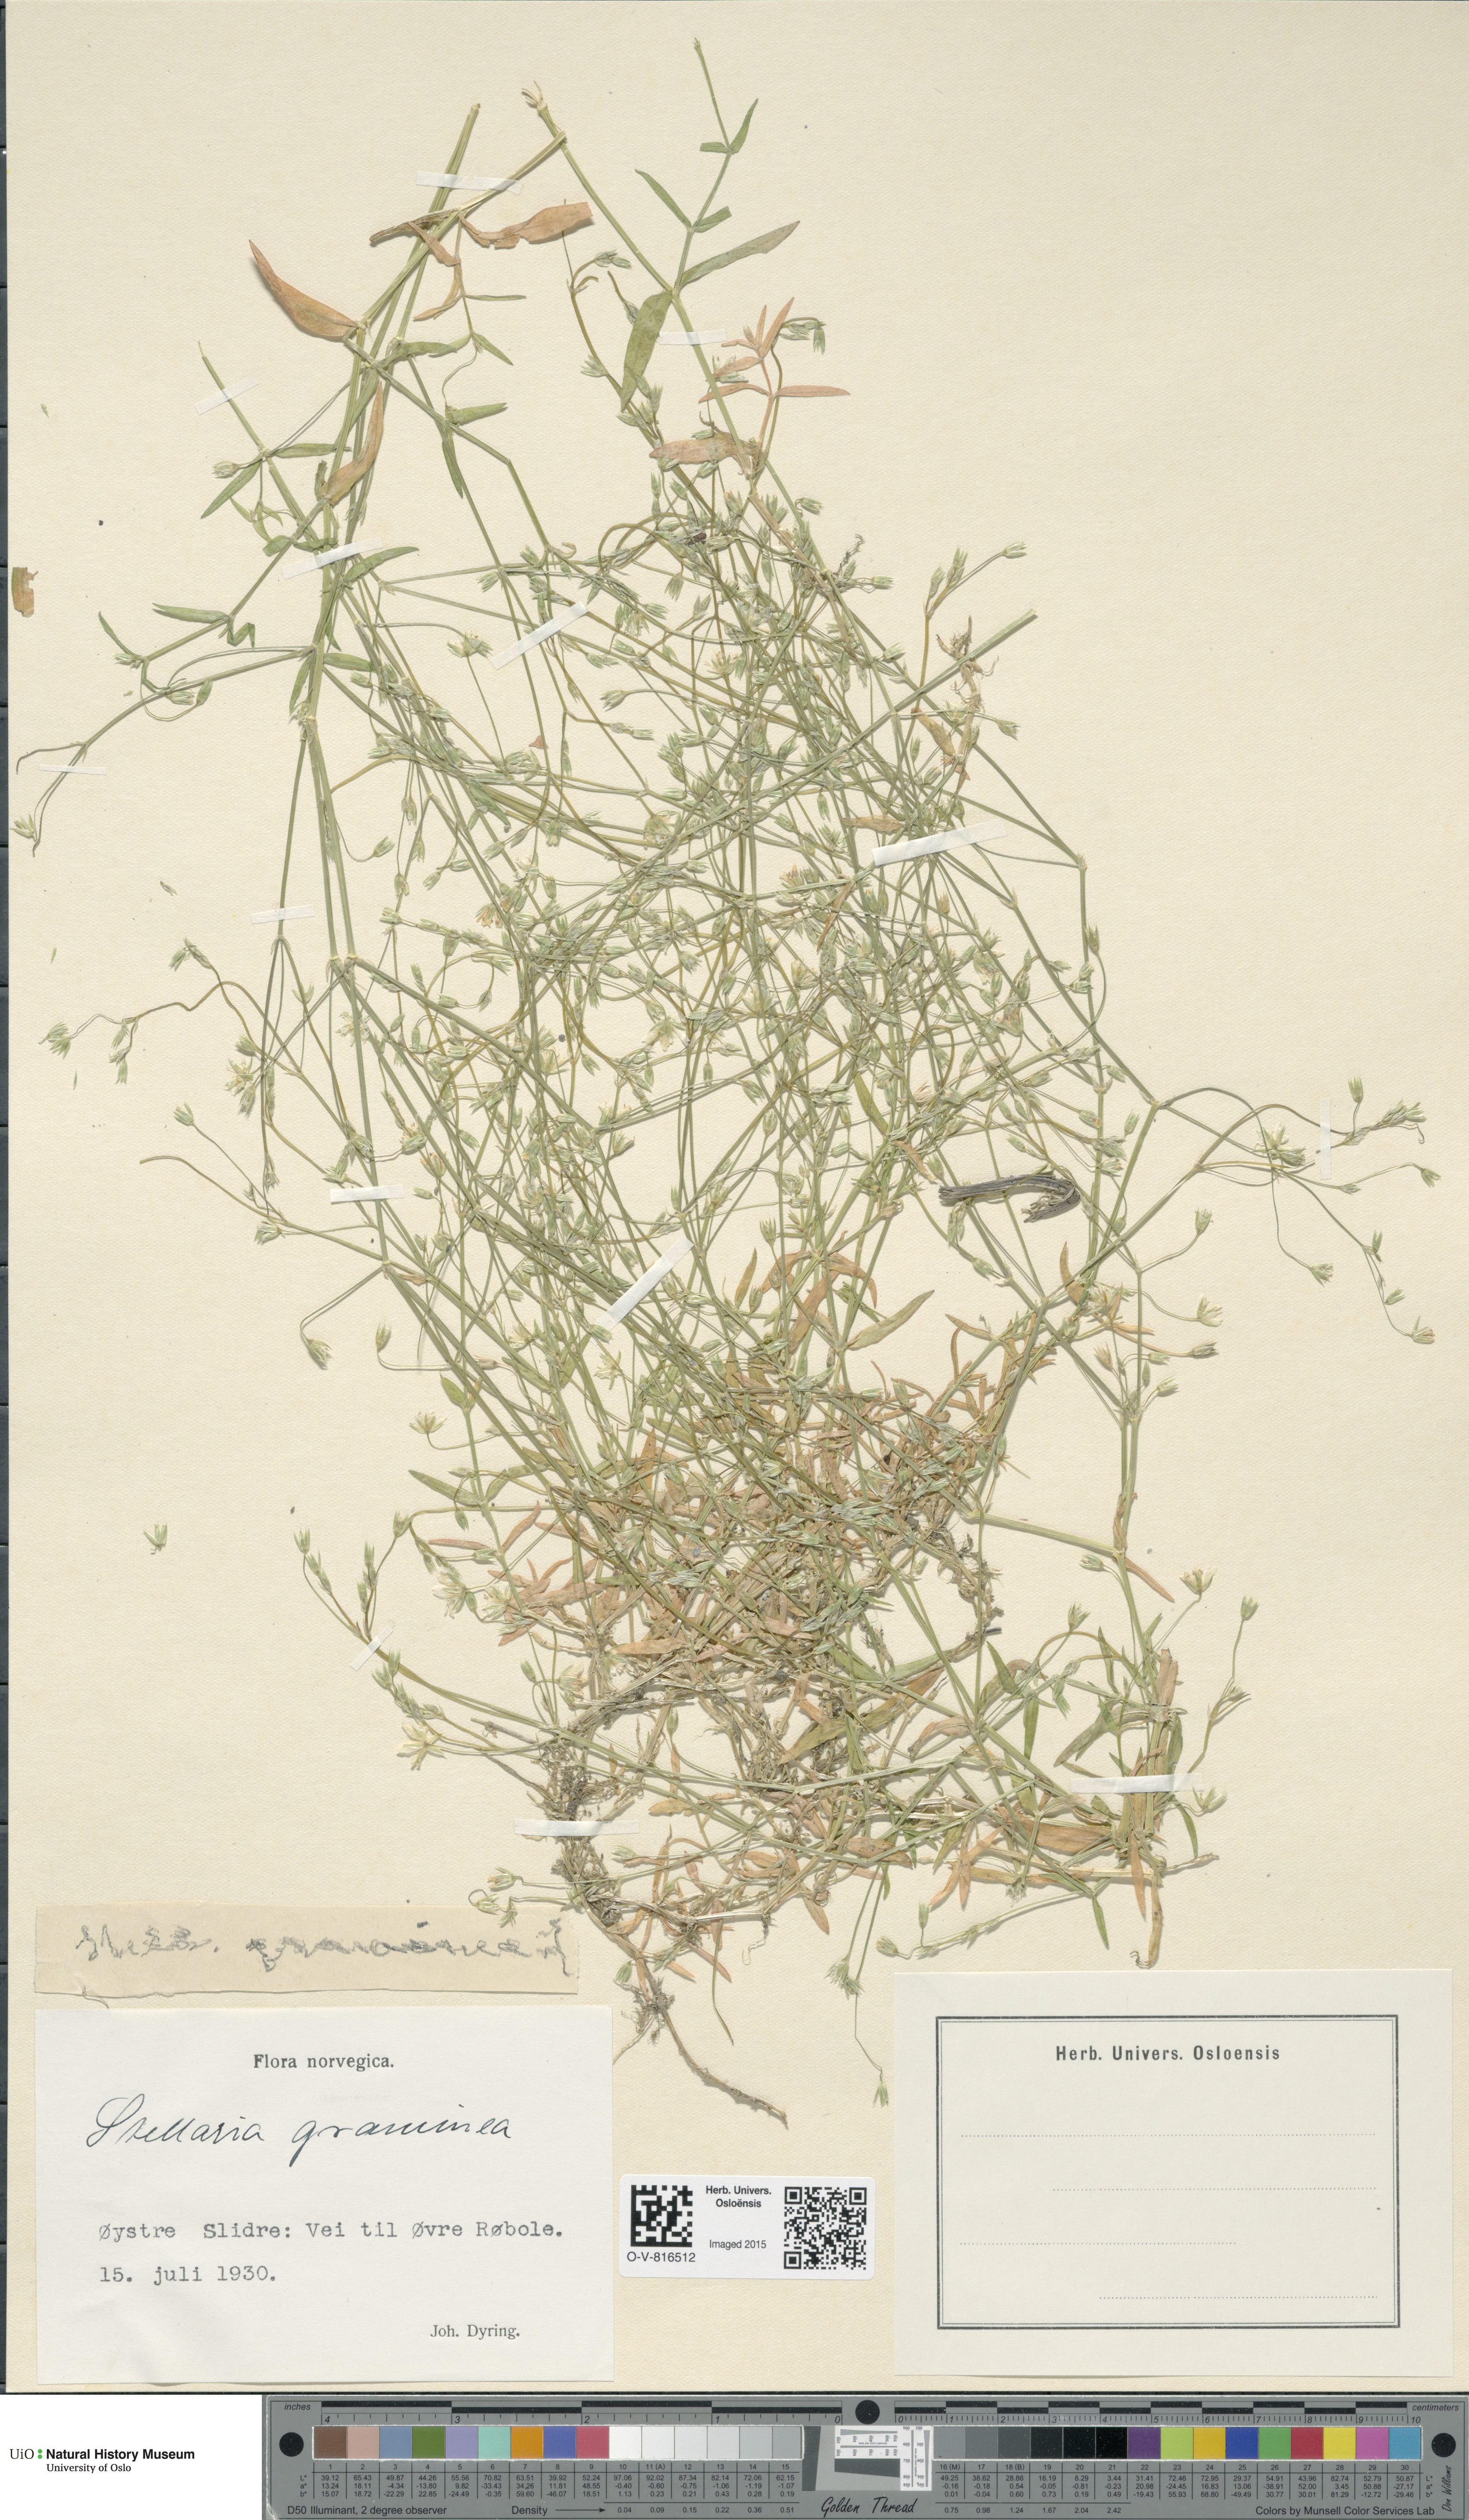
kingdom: Plantae
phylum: Tracheophyta
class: Magnoliopsida
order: Caryophyllales
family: Caryophyllaceae
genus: Stellaria
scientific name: Stellaria graminea
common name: Grass-like starwort
